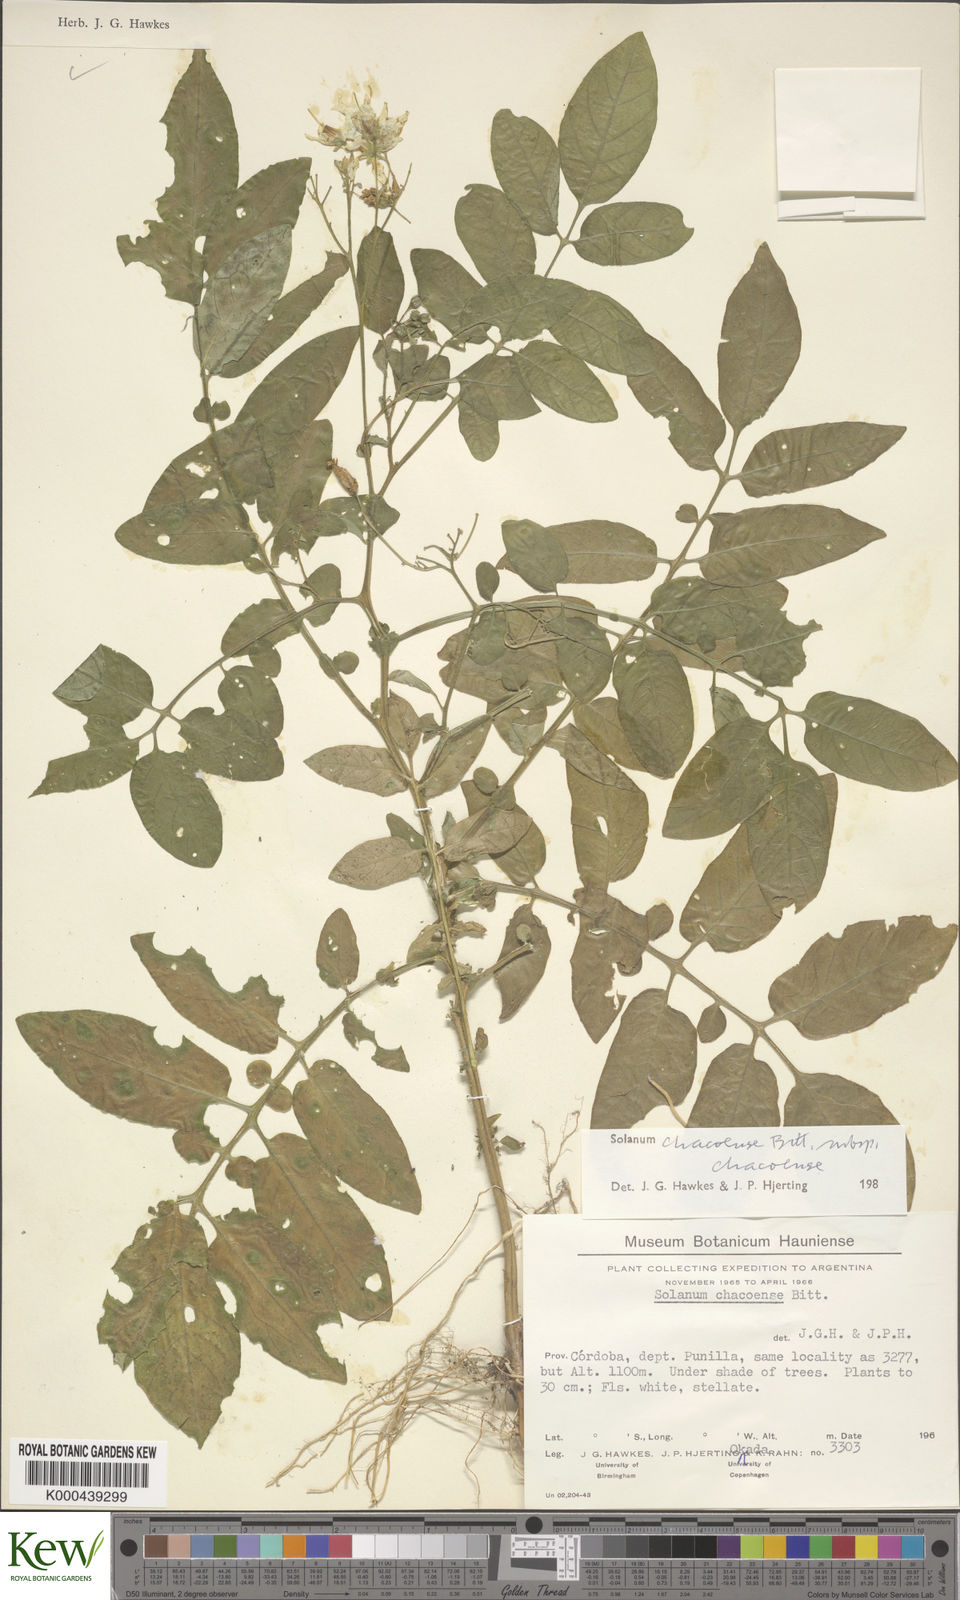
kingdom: Plantae
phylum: Tracheophyta
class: Magnoliopsida
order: Solanales
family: Solanaceae
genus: Solanum
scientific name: Solanum chacoense
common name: Chaco potato
